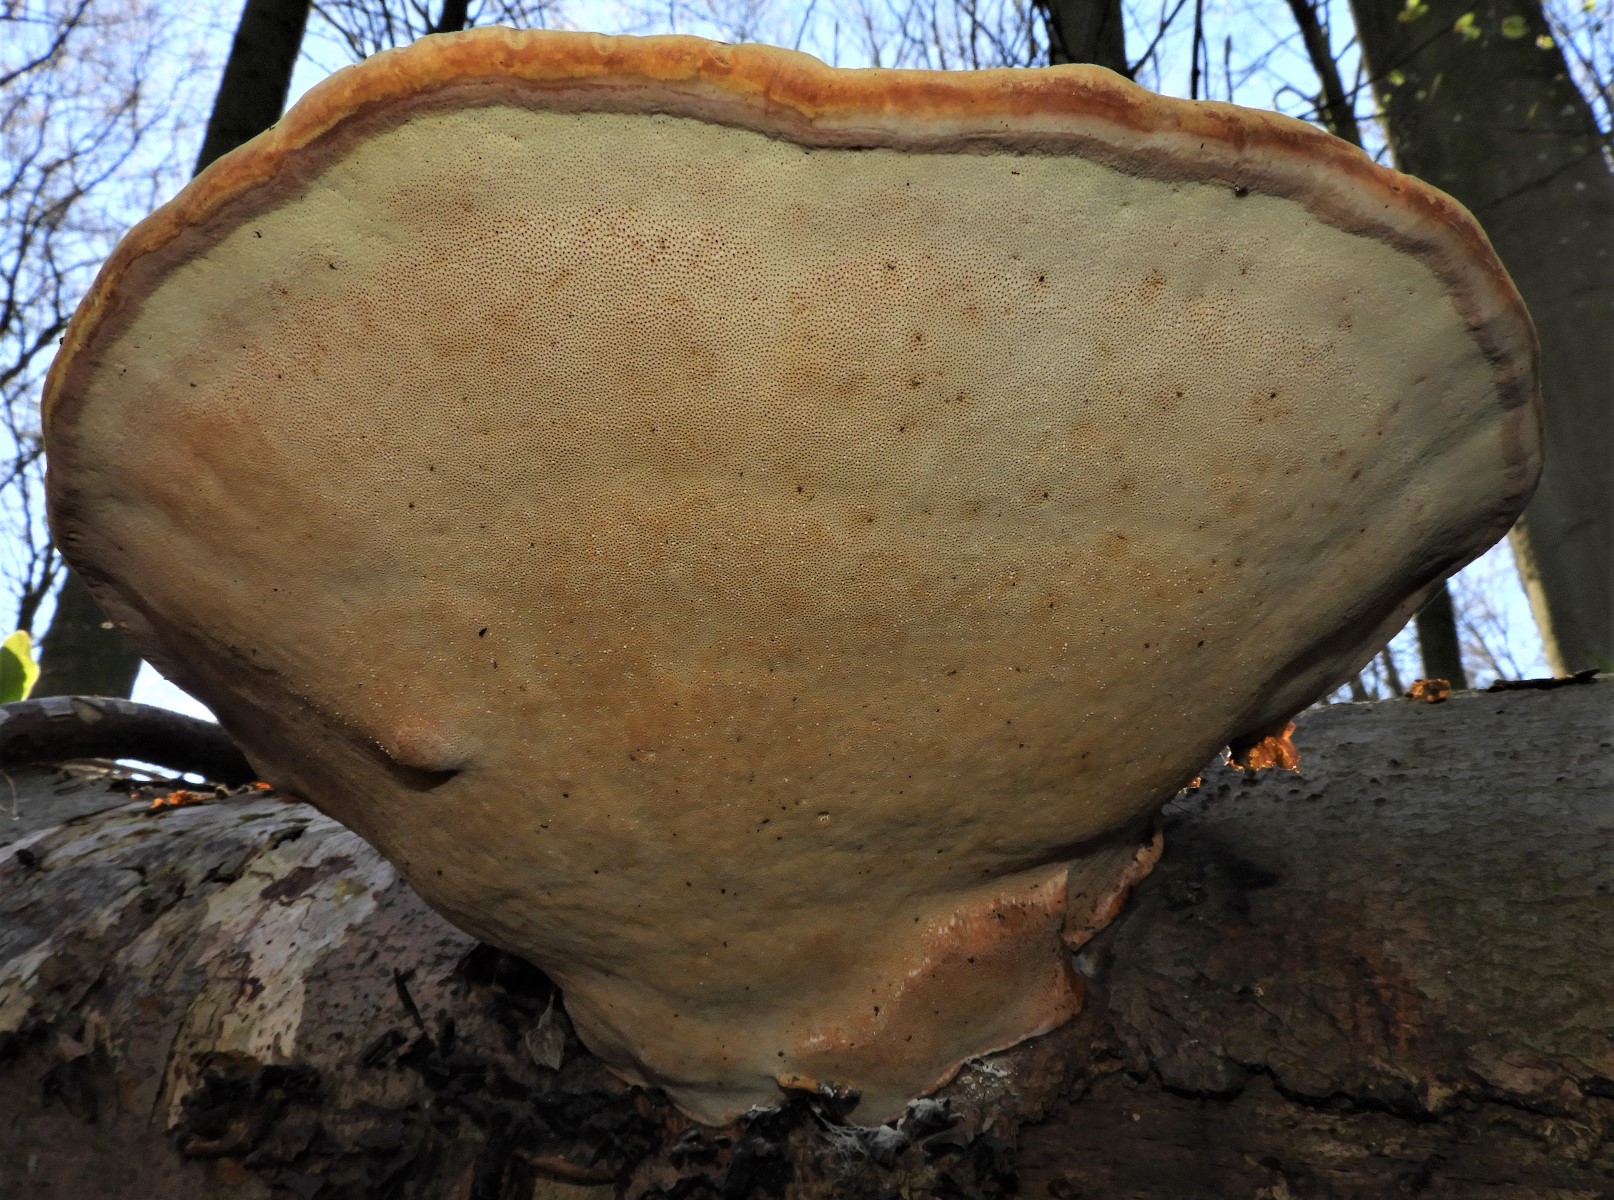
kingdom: Fungi
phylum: Basidiomycota
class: Agaricomycetes
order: Polyporales
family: Fomitopsidaceae
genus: Fomitopsis
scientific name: Fomitopsis pinicola
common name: randbæltet hovporesvamp
